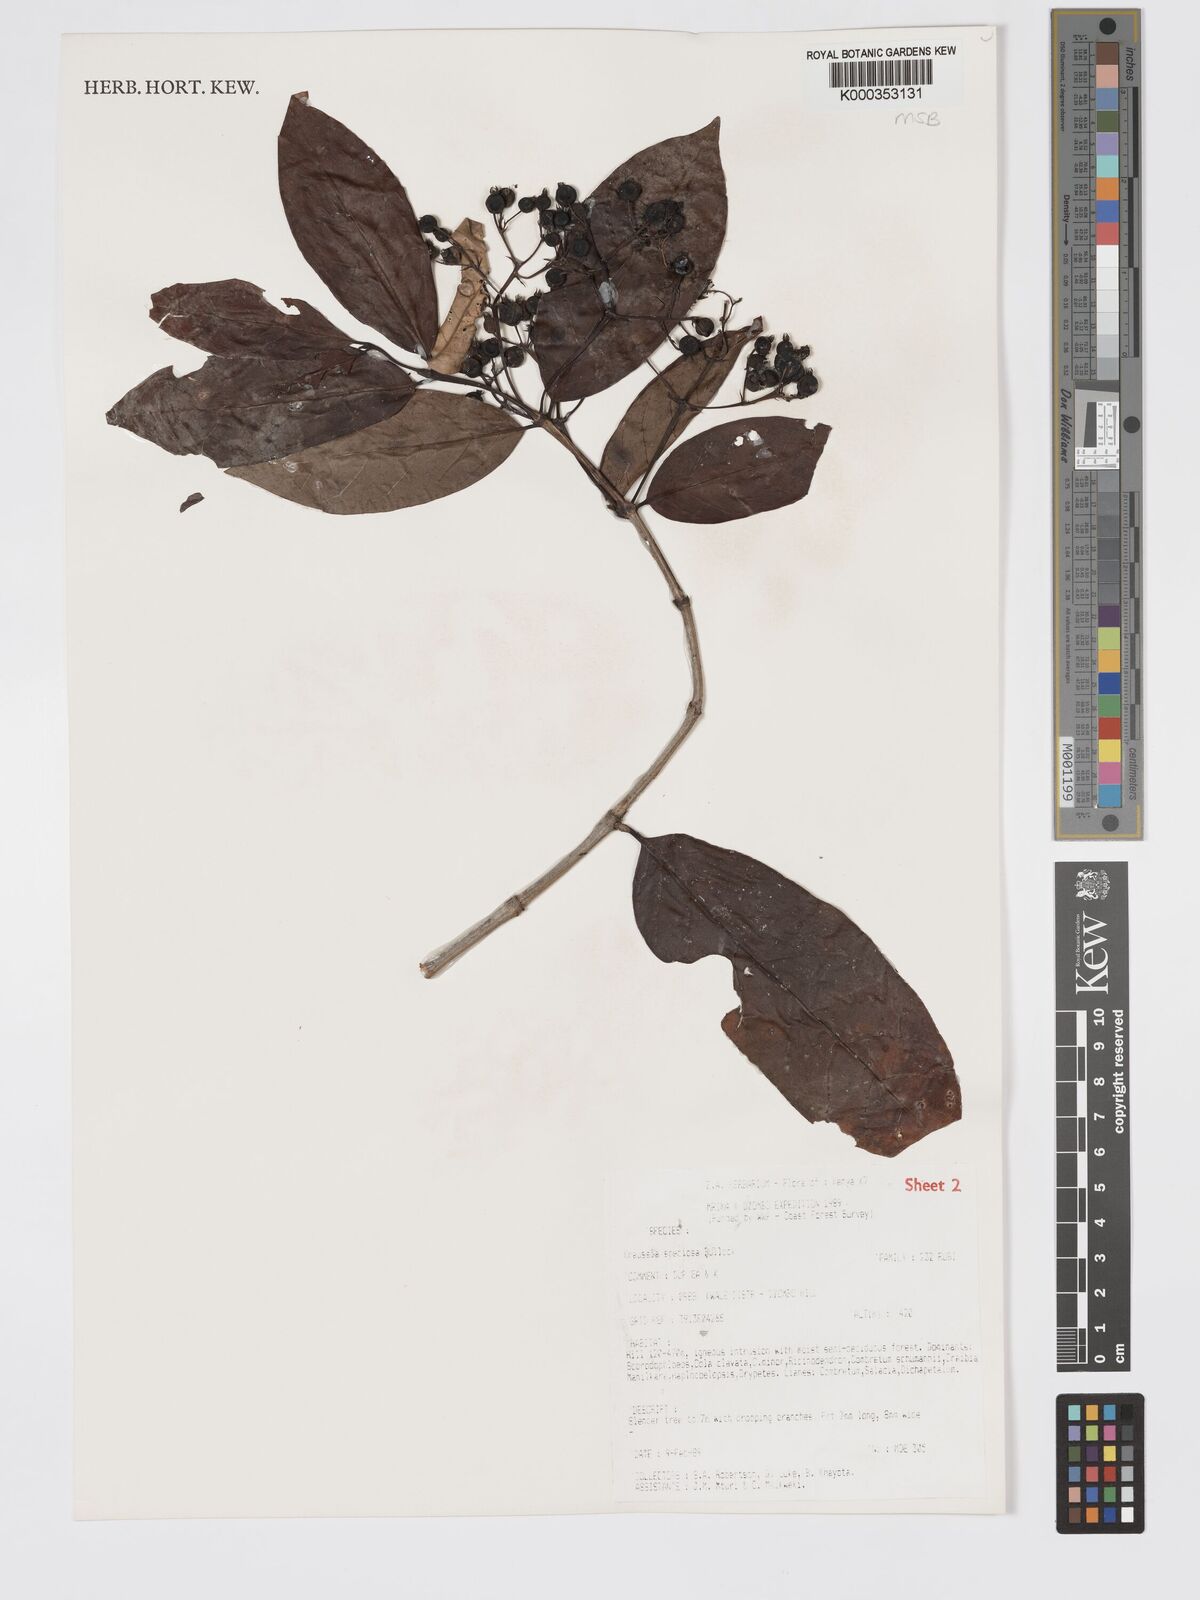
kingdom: Plantae
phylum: Tracheophyta
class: Magnoliopsida
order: Gentianales
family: Rubiaceae
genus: Kraussia
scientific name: Kraussia speciosa
